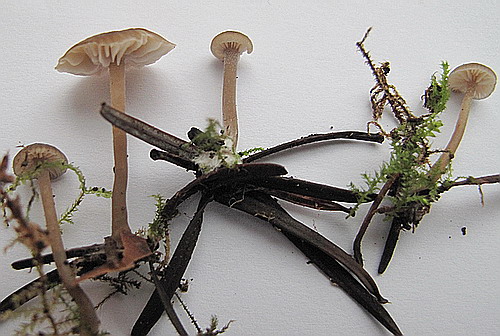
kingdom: Fungi
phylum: Basidiomycota
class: Agaricomycetes
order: Agaricales
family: Tricholomataceae
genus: Gamundia
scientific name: Gamundia striatula
